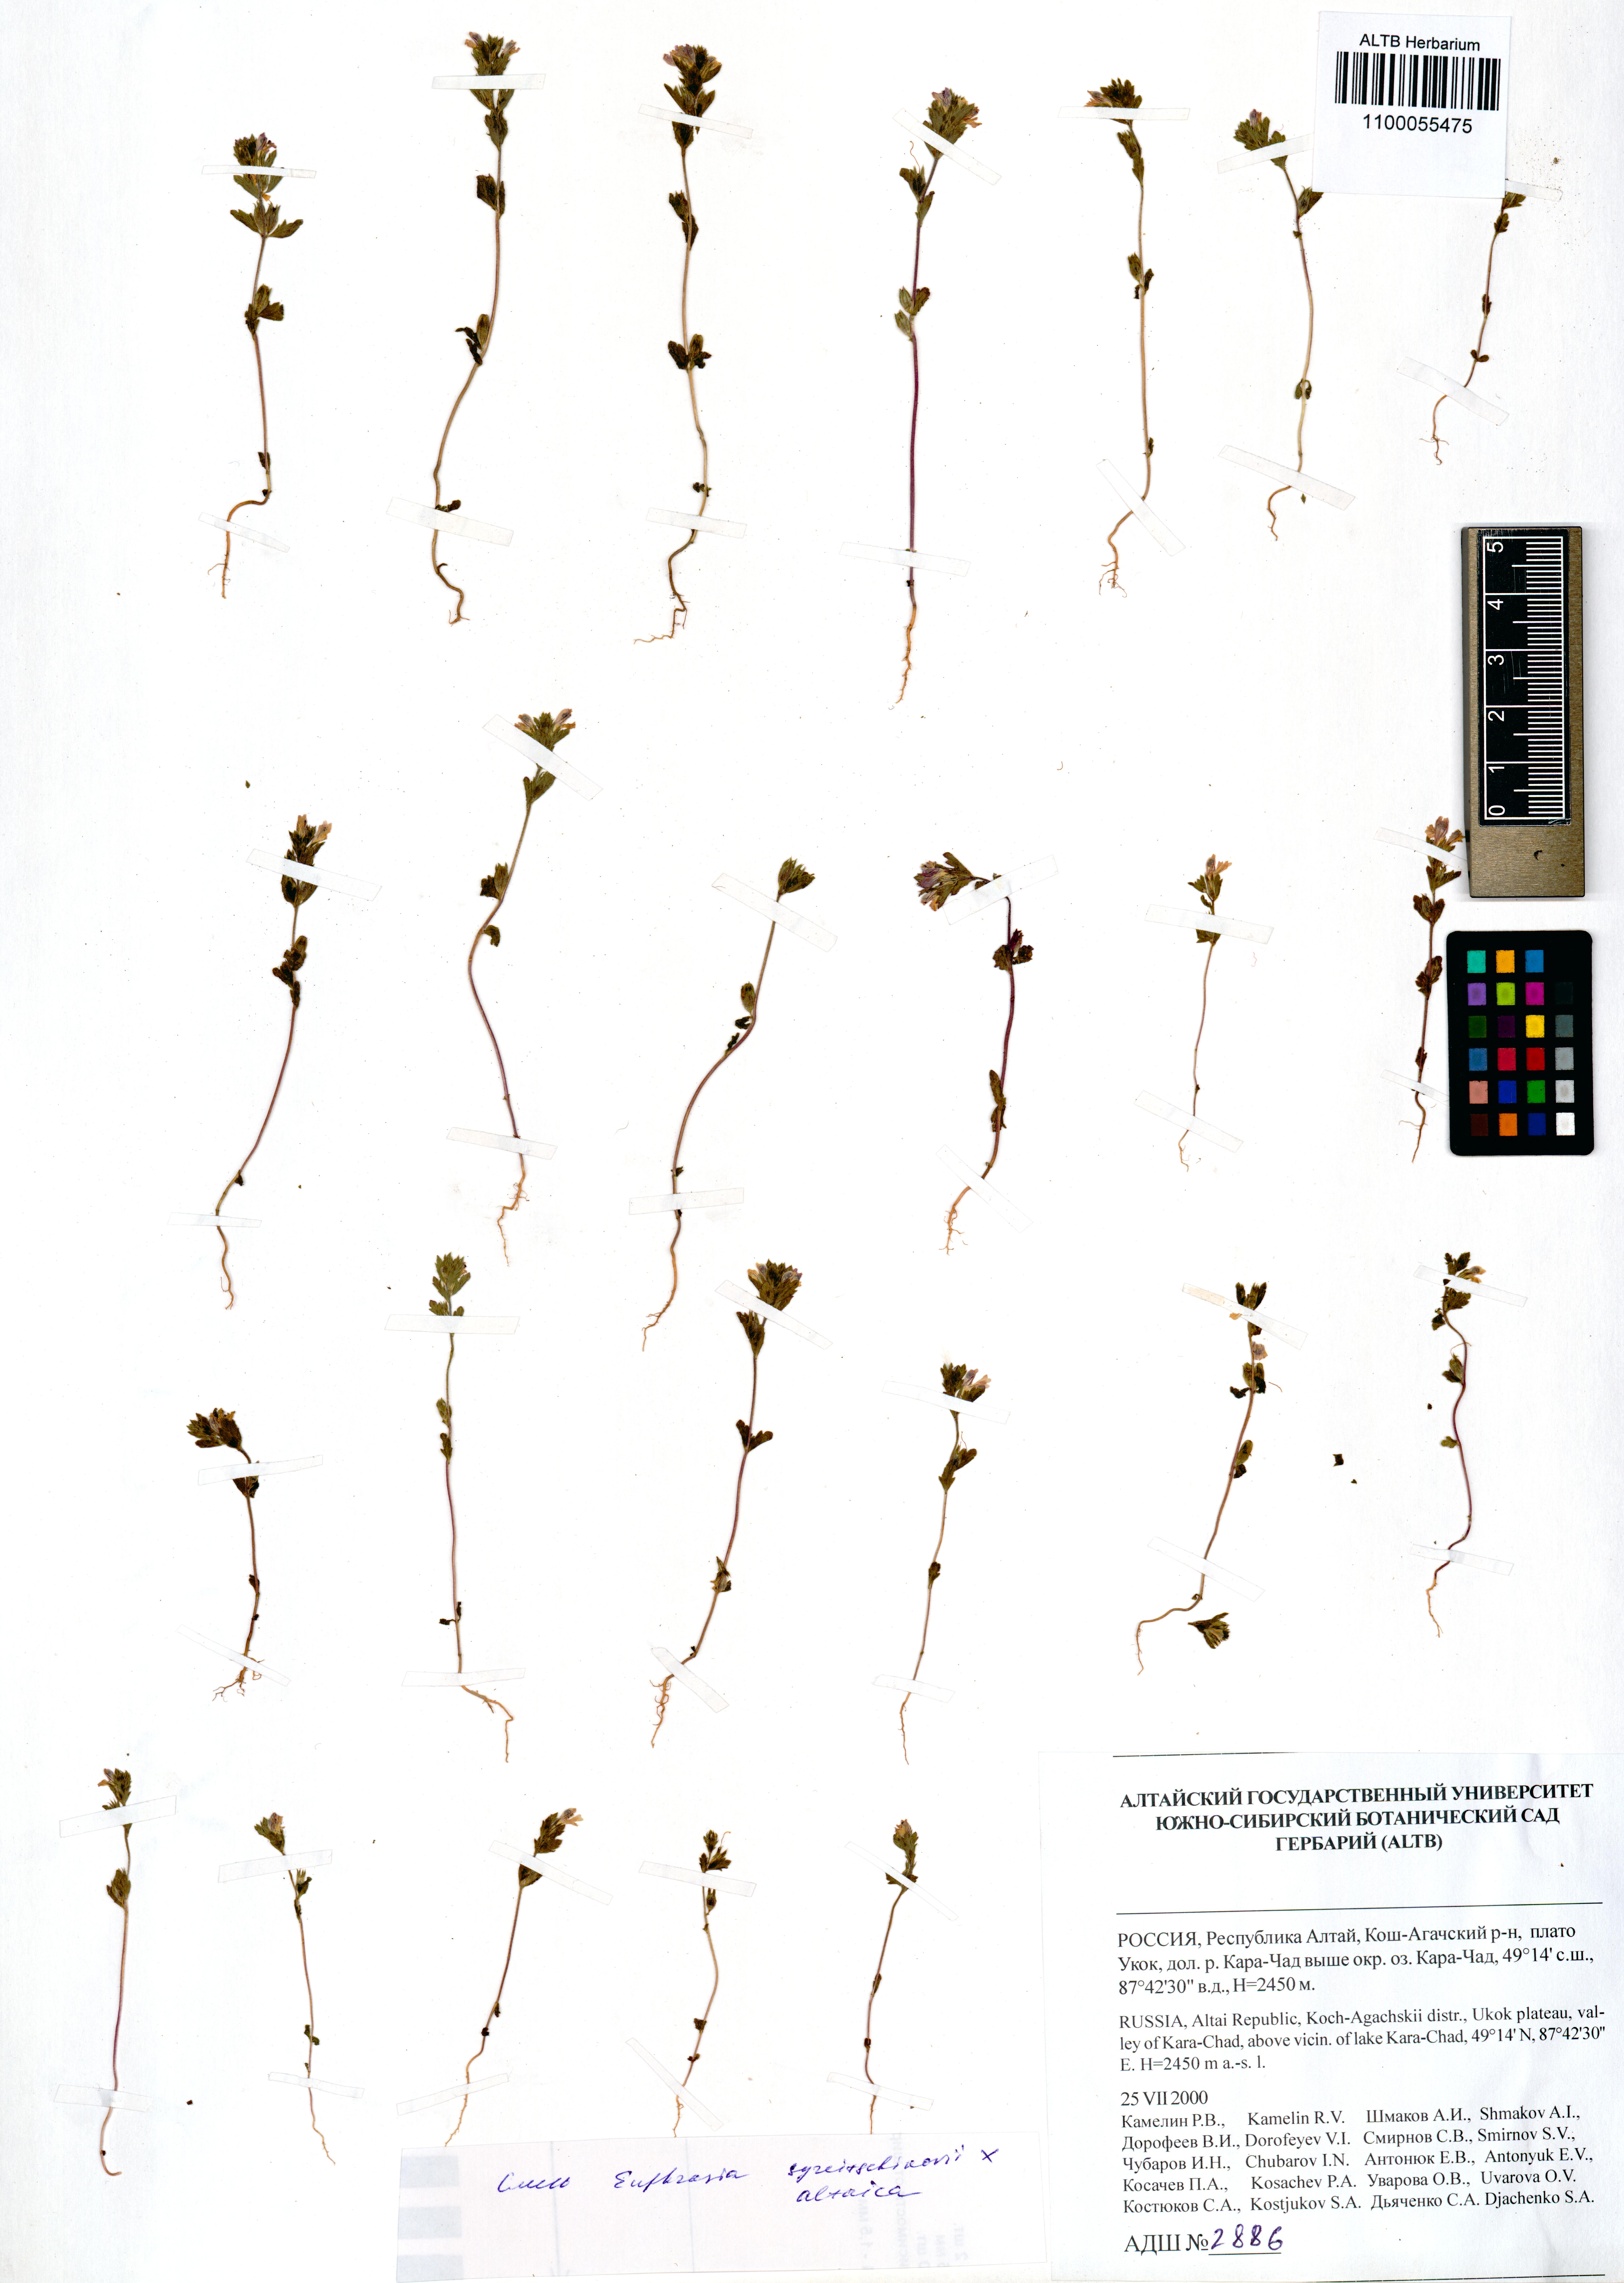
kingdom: Plantae
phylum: Tracheophyta
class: Magnoliopsida
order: Lamiales
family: Orobanchaceae
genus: Euphrasia
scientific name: Euphrasia syreitschikovii
